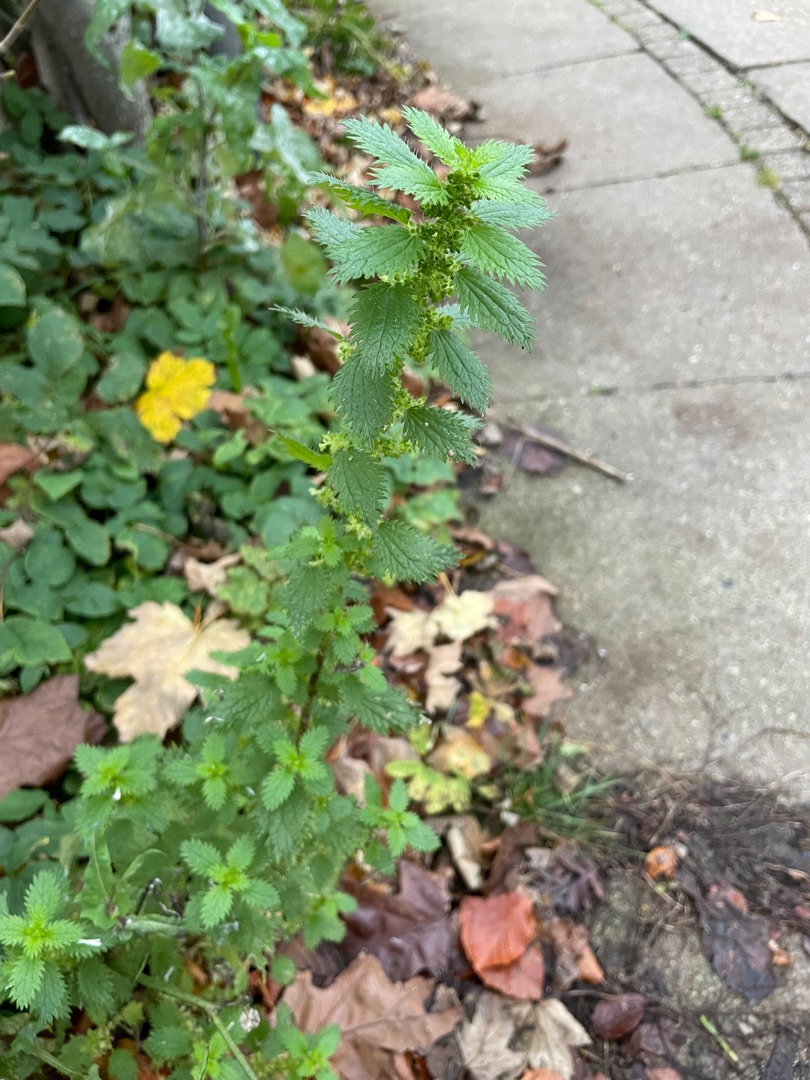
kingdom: Plantae
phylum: Tracheophyta
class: Magnoliopsida
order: Rosales
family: Urticaceae
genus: Urtica
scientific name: Urtica urens
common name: Liden nælde
